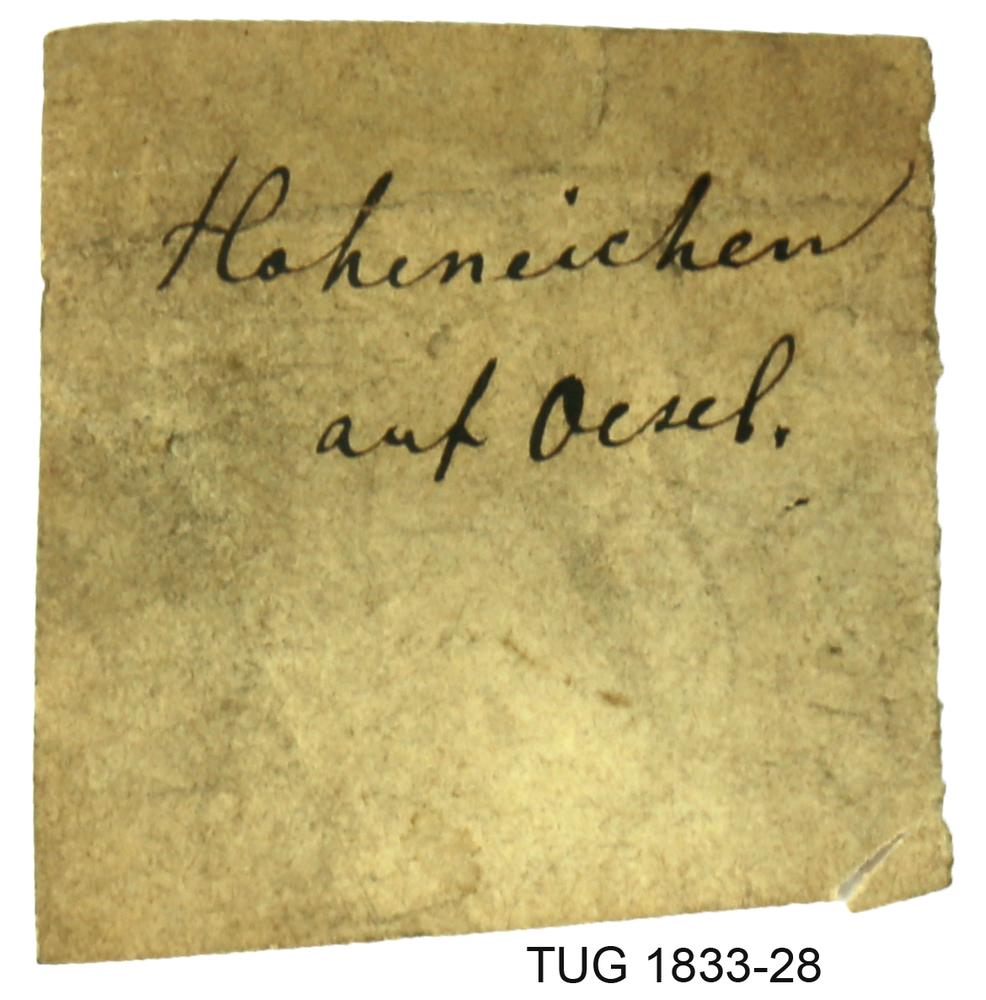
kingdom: Animalia
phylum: Porifera
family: Stromatoporidae
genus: Stromatopora
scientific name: Stromatopora
